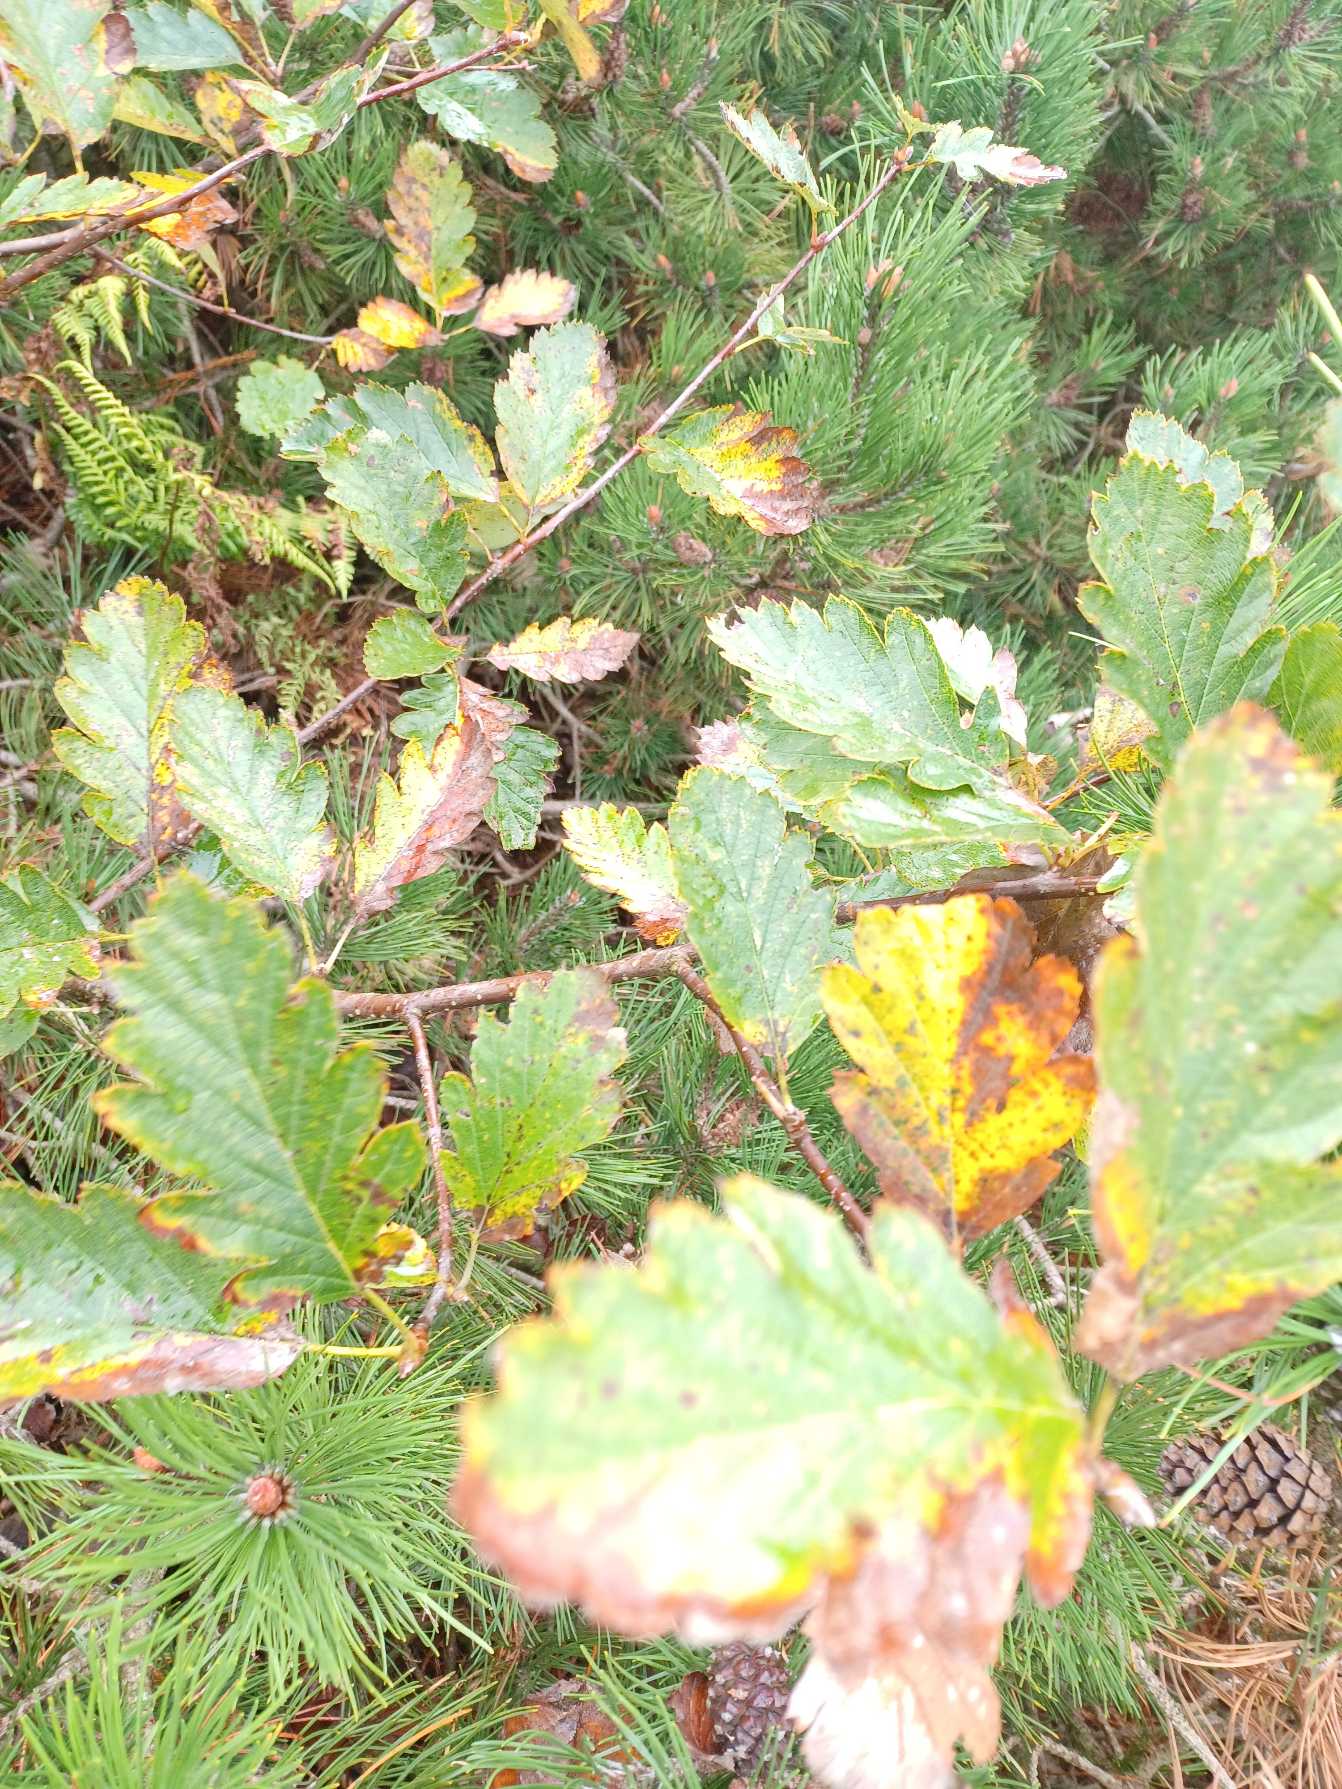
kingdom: Plantae
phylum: Tracheophyta
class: Magnoliopsida
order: Rosales
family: Rosaceae
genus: Scandosorbus
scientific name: Scandosorbus intermedia
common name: Selje-røn
